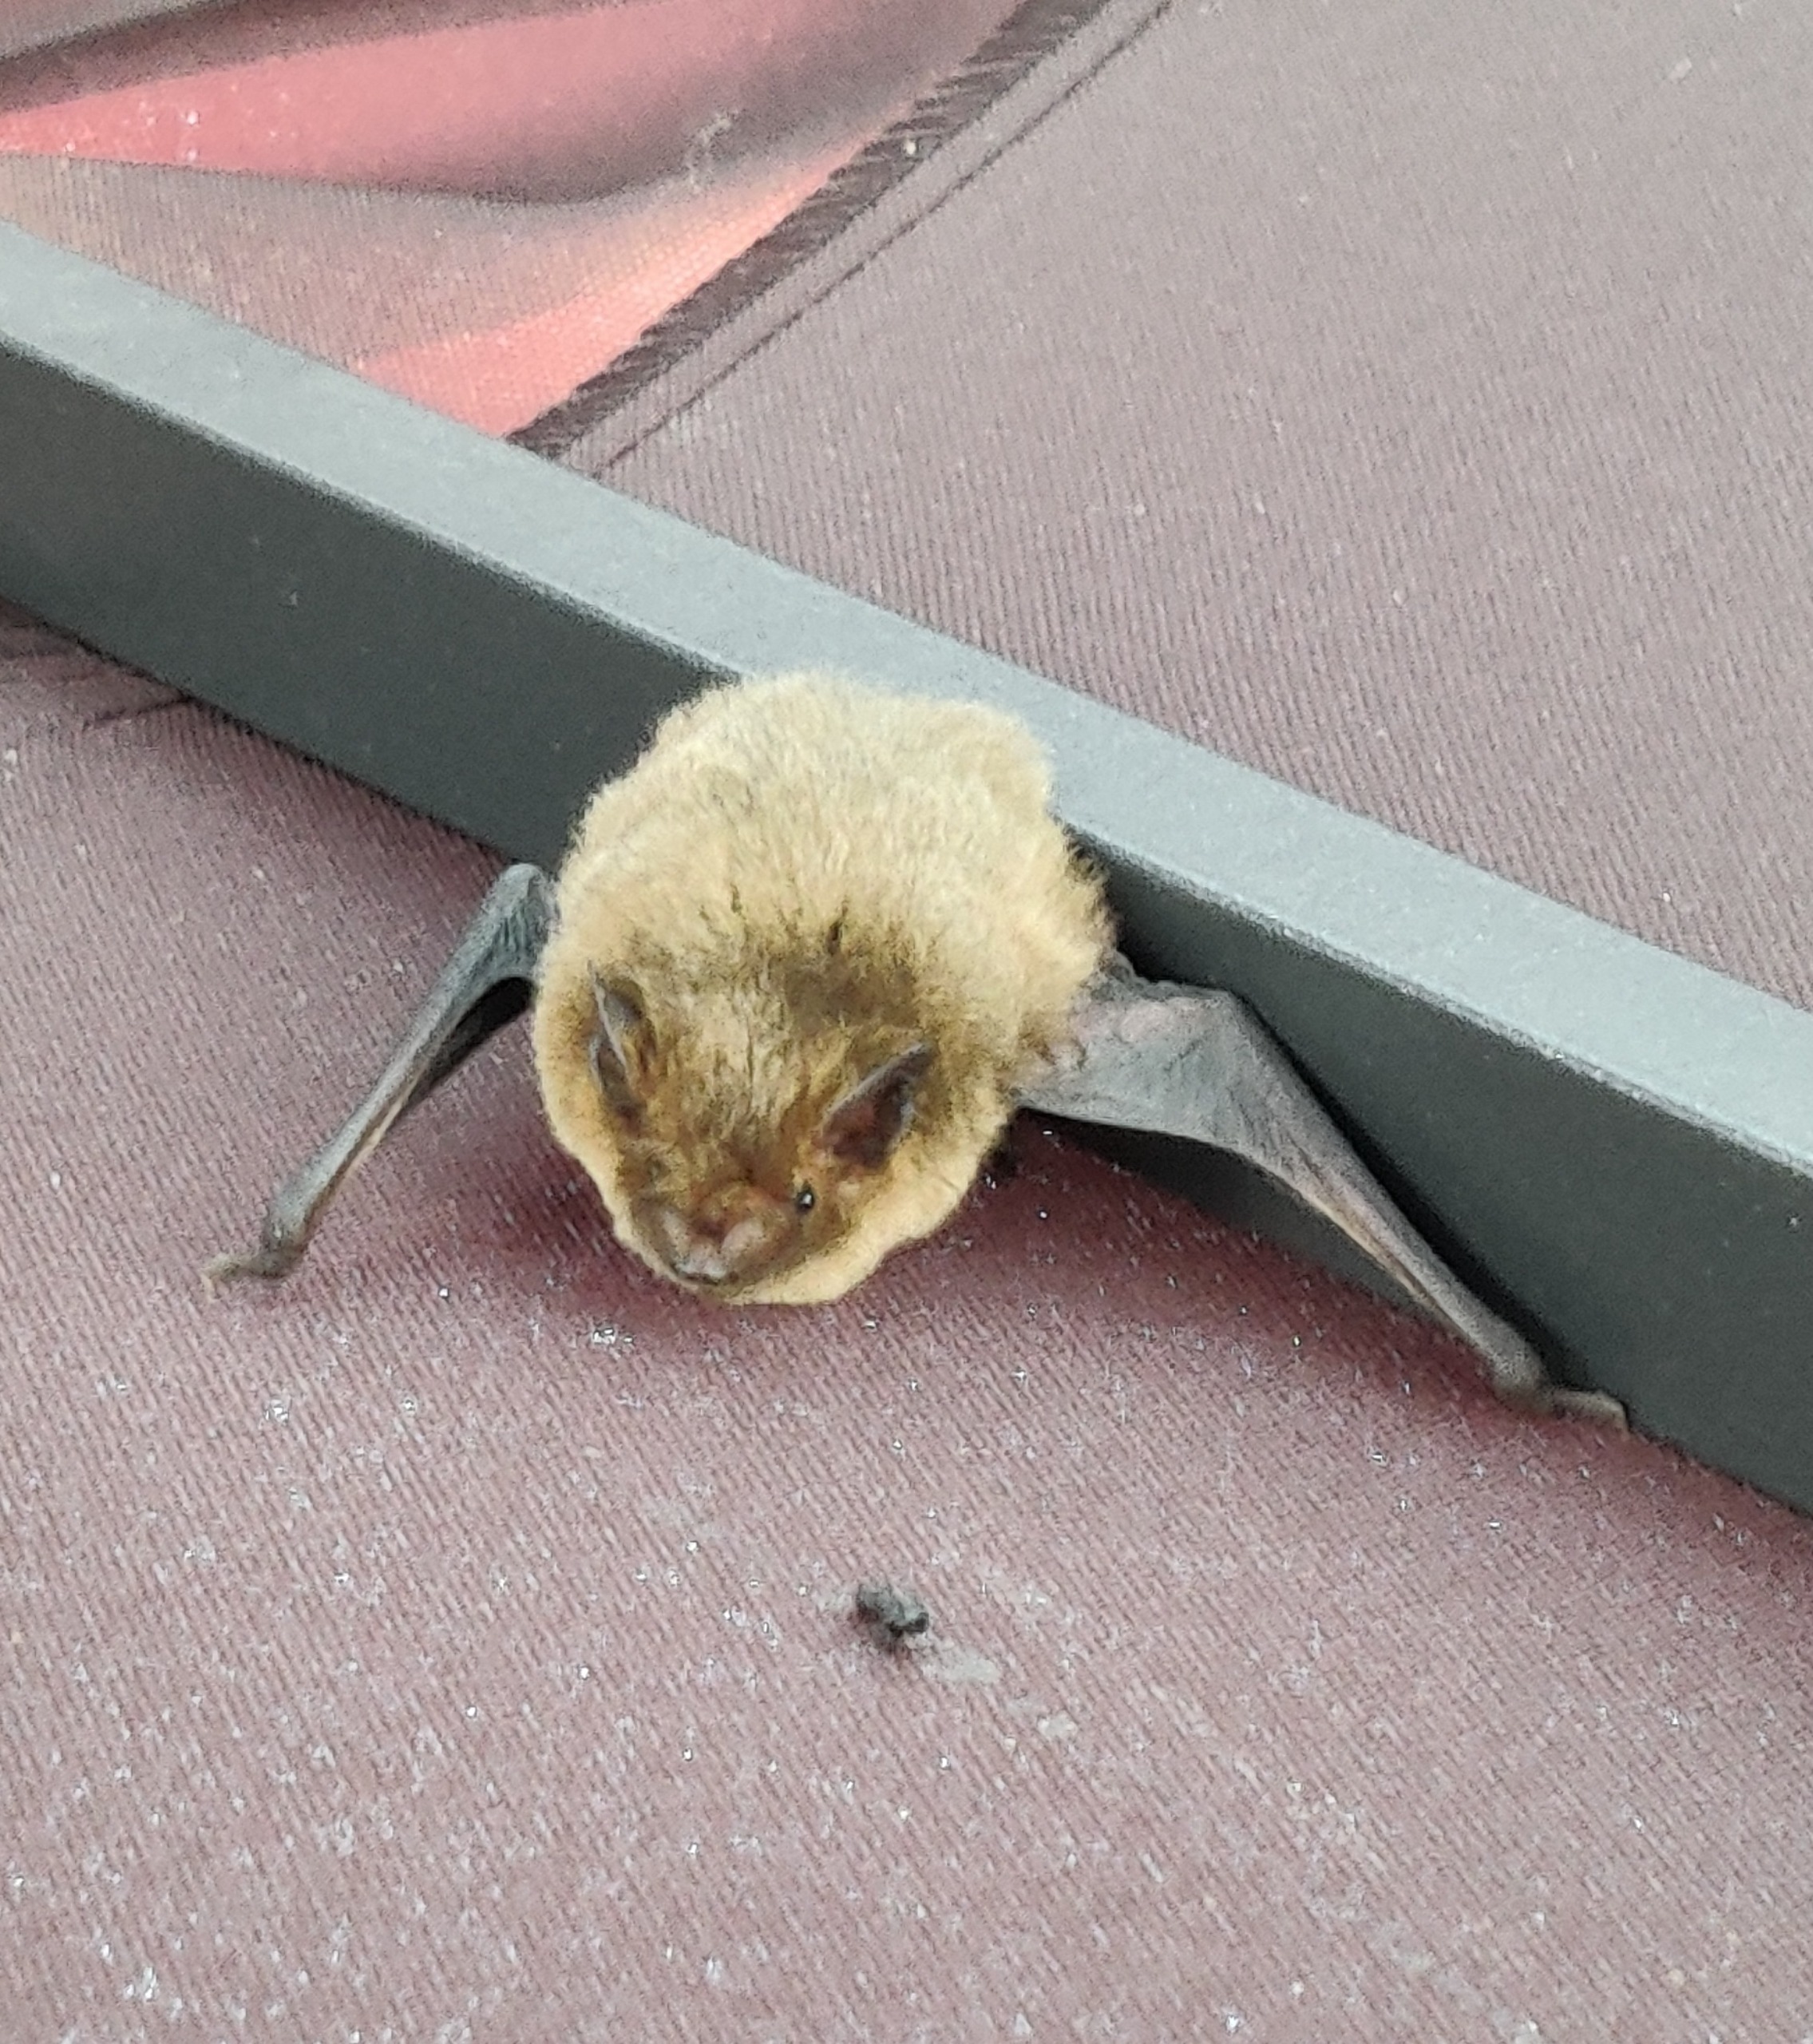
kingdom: Animalia
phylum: Chordata
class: Mammalia
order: Chiroptera
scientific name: Chiroptera
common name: Flagermus
